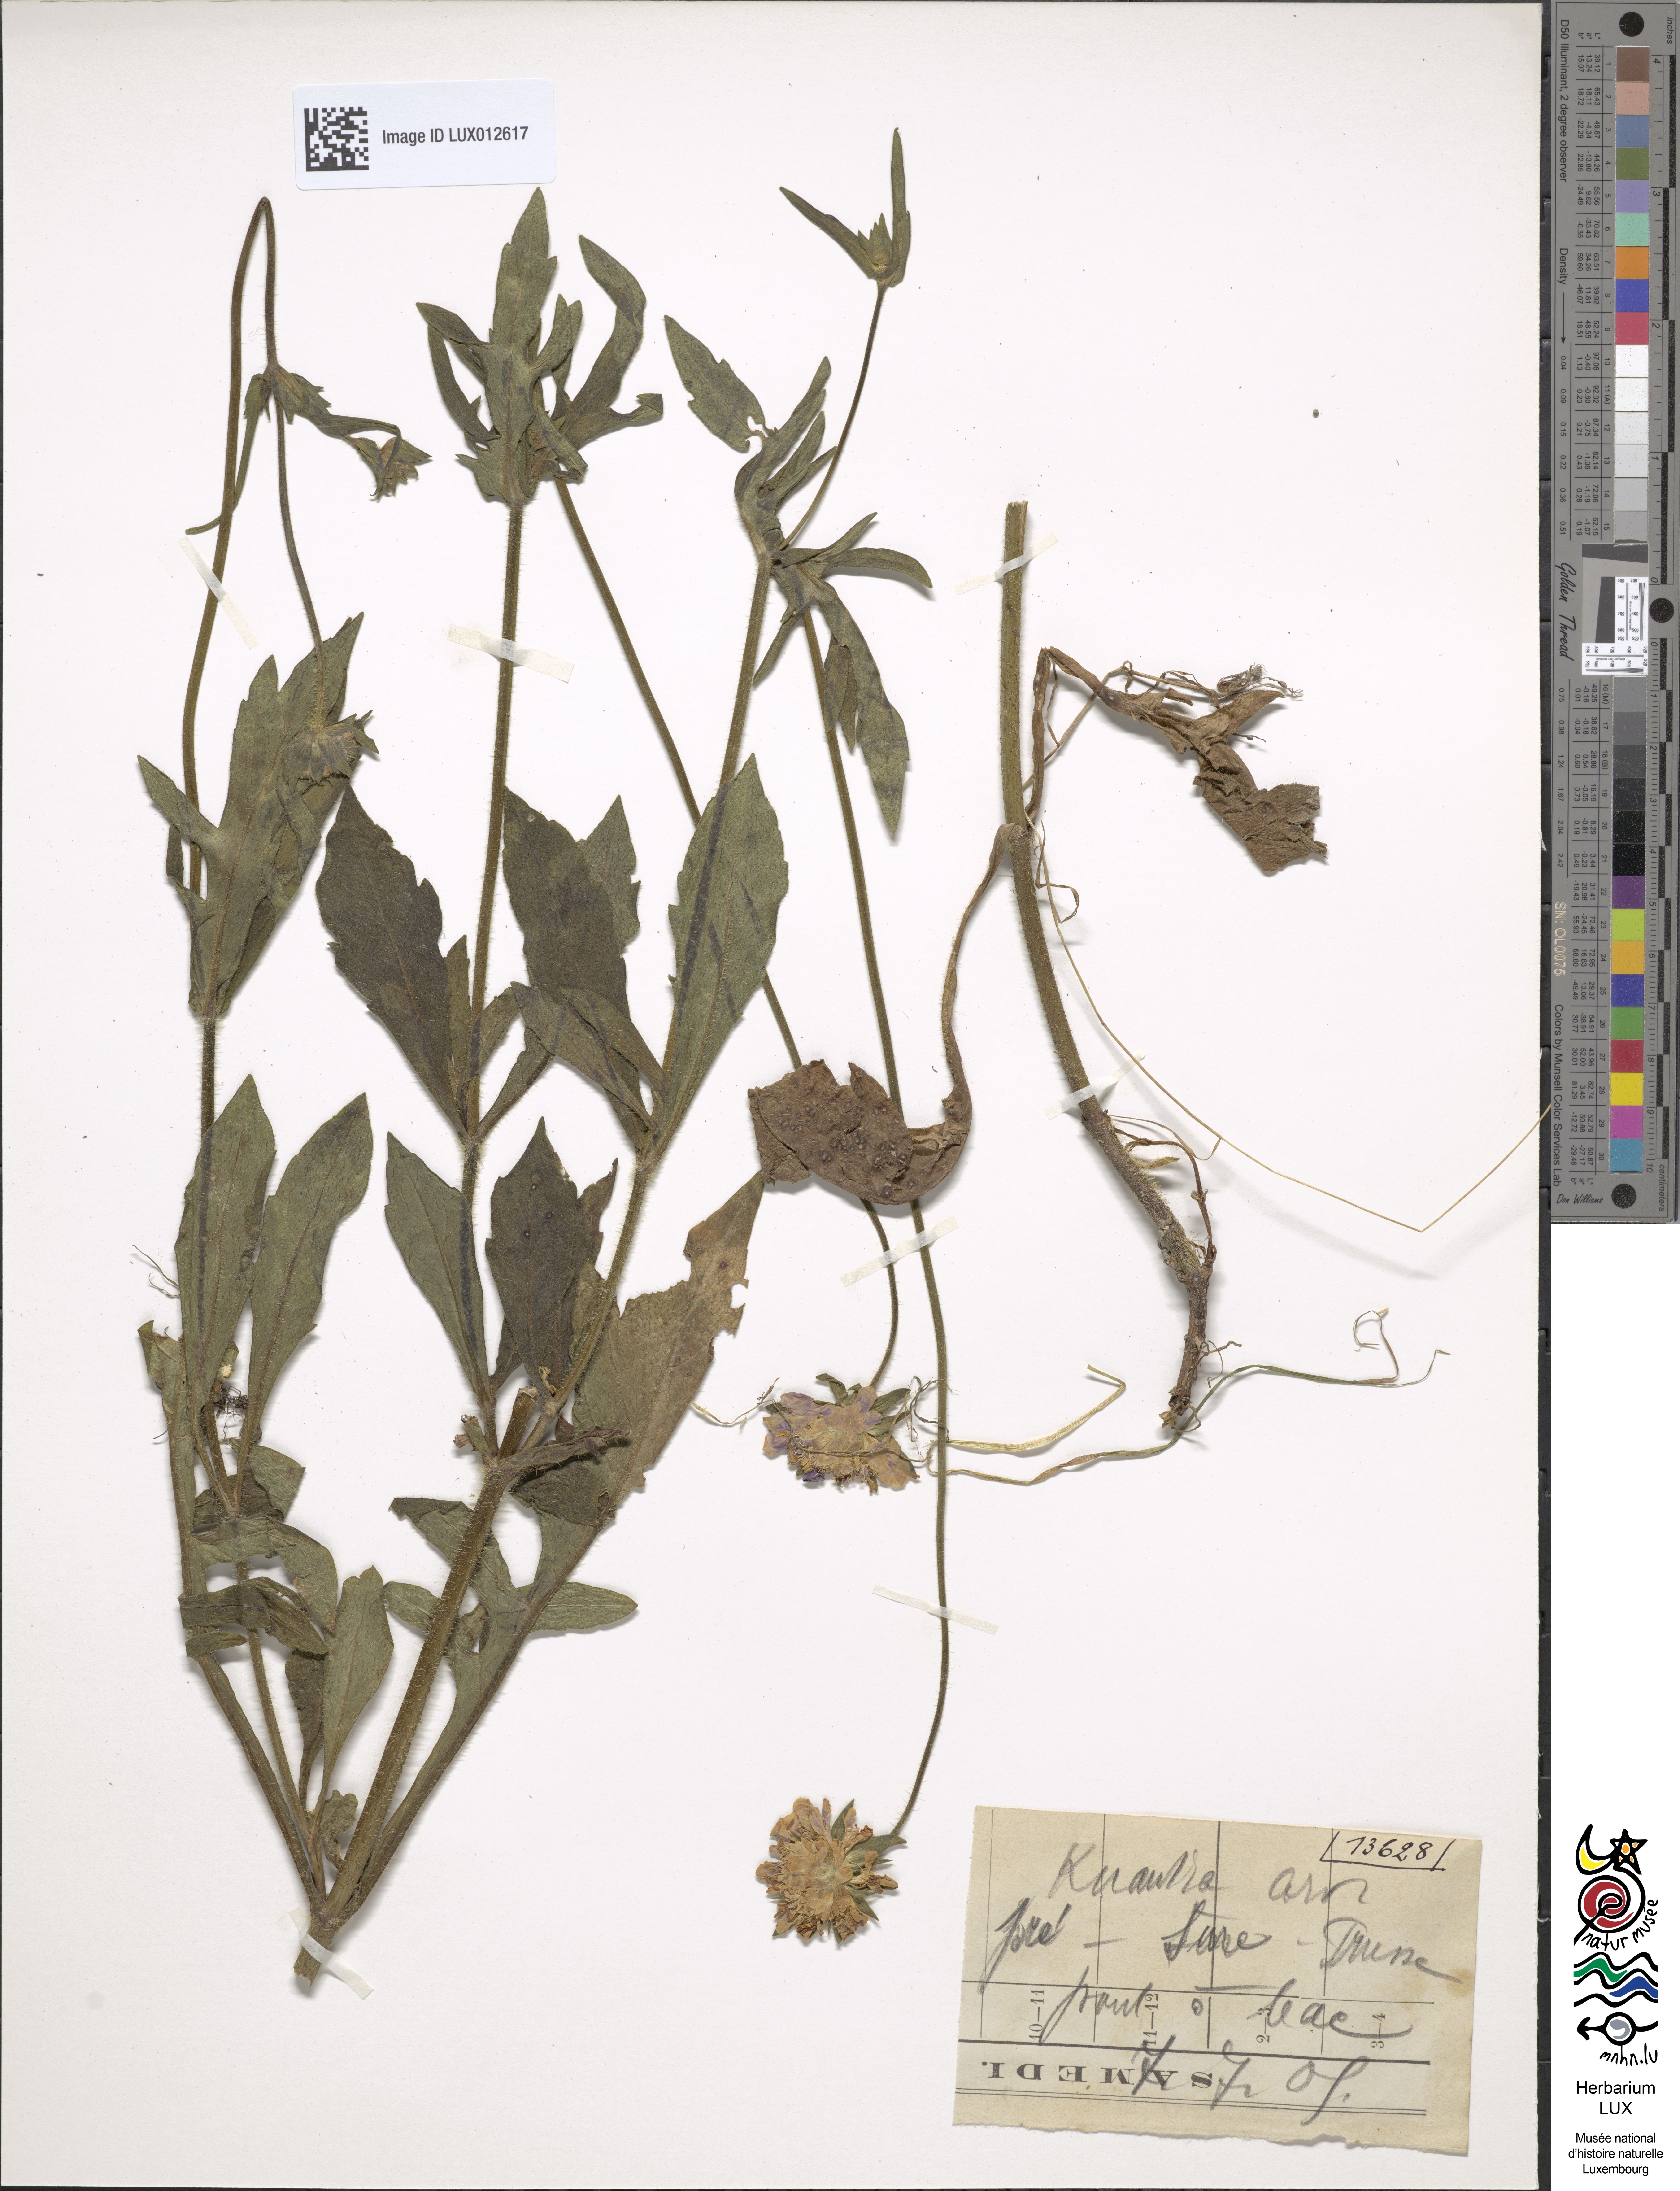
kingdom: Plantae
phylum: Tracheophyta
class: Magnoliopsida
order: Dipsacales
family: Caprifoliaceae
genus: Knautia
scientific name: Knautia arvensis
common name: Field scabiosa
